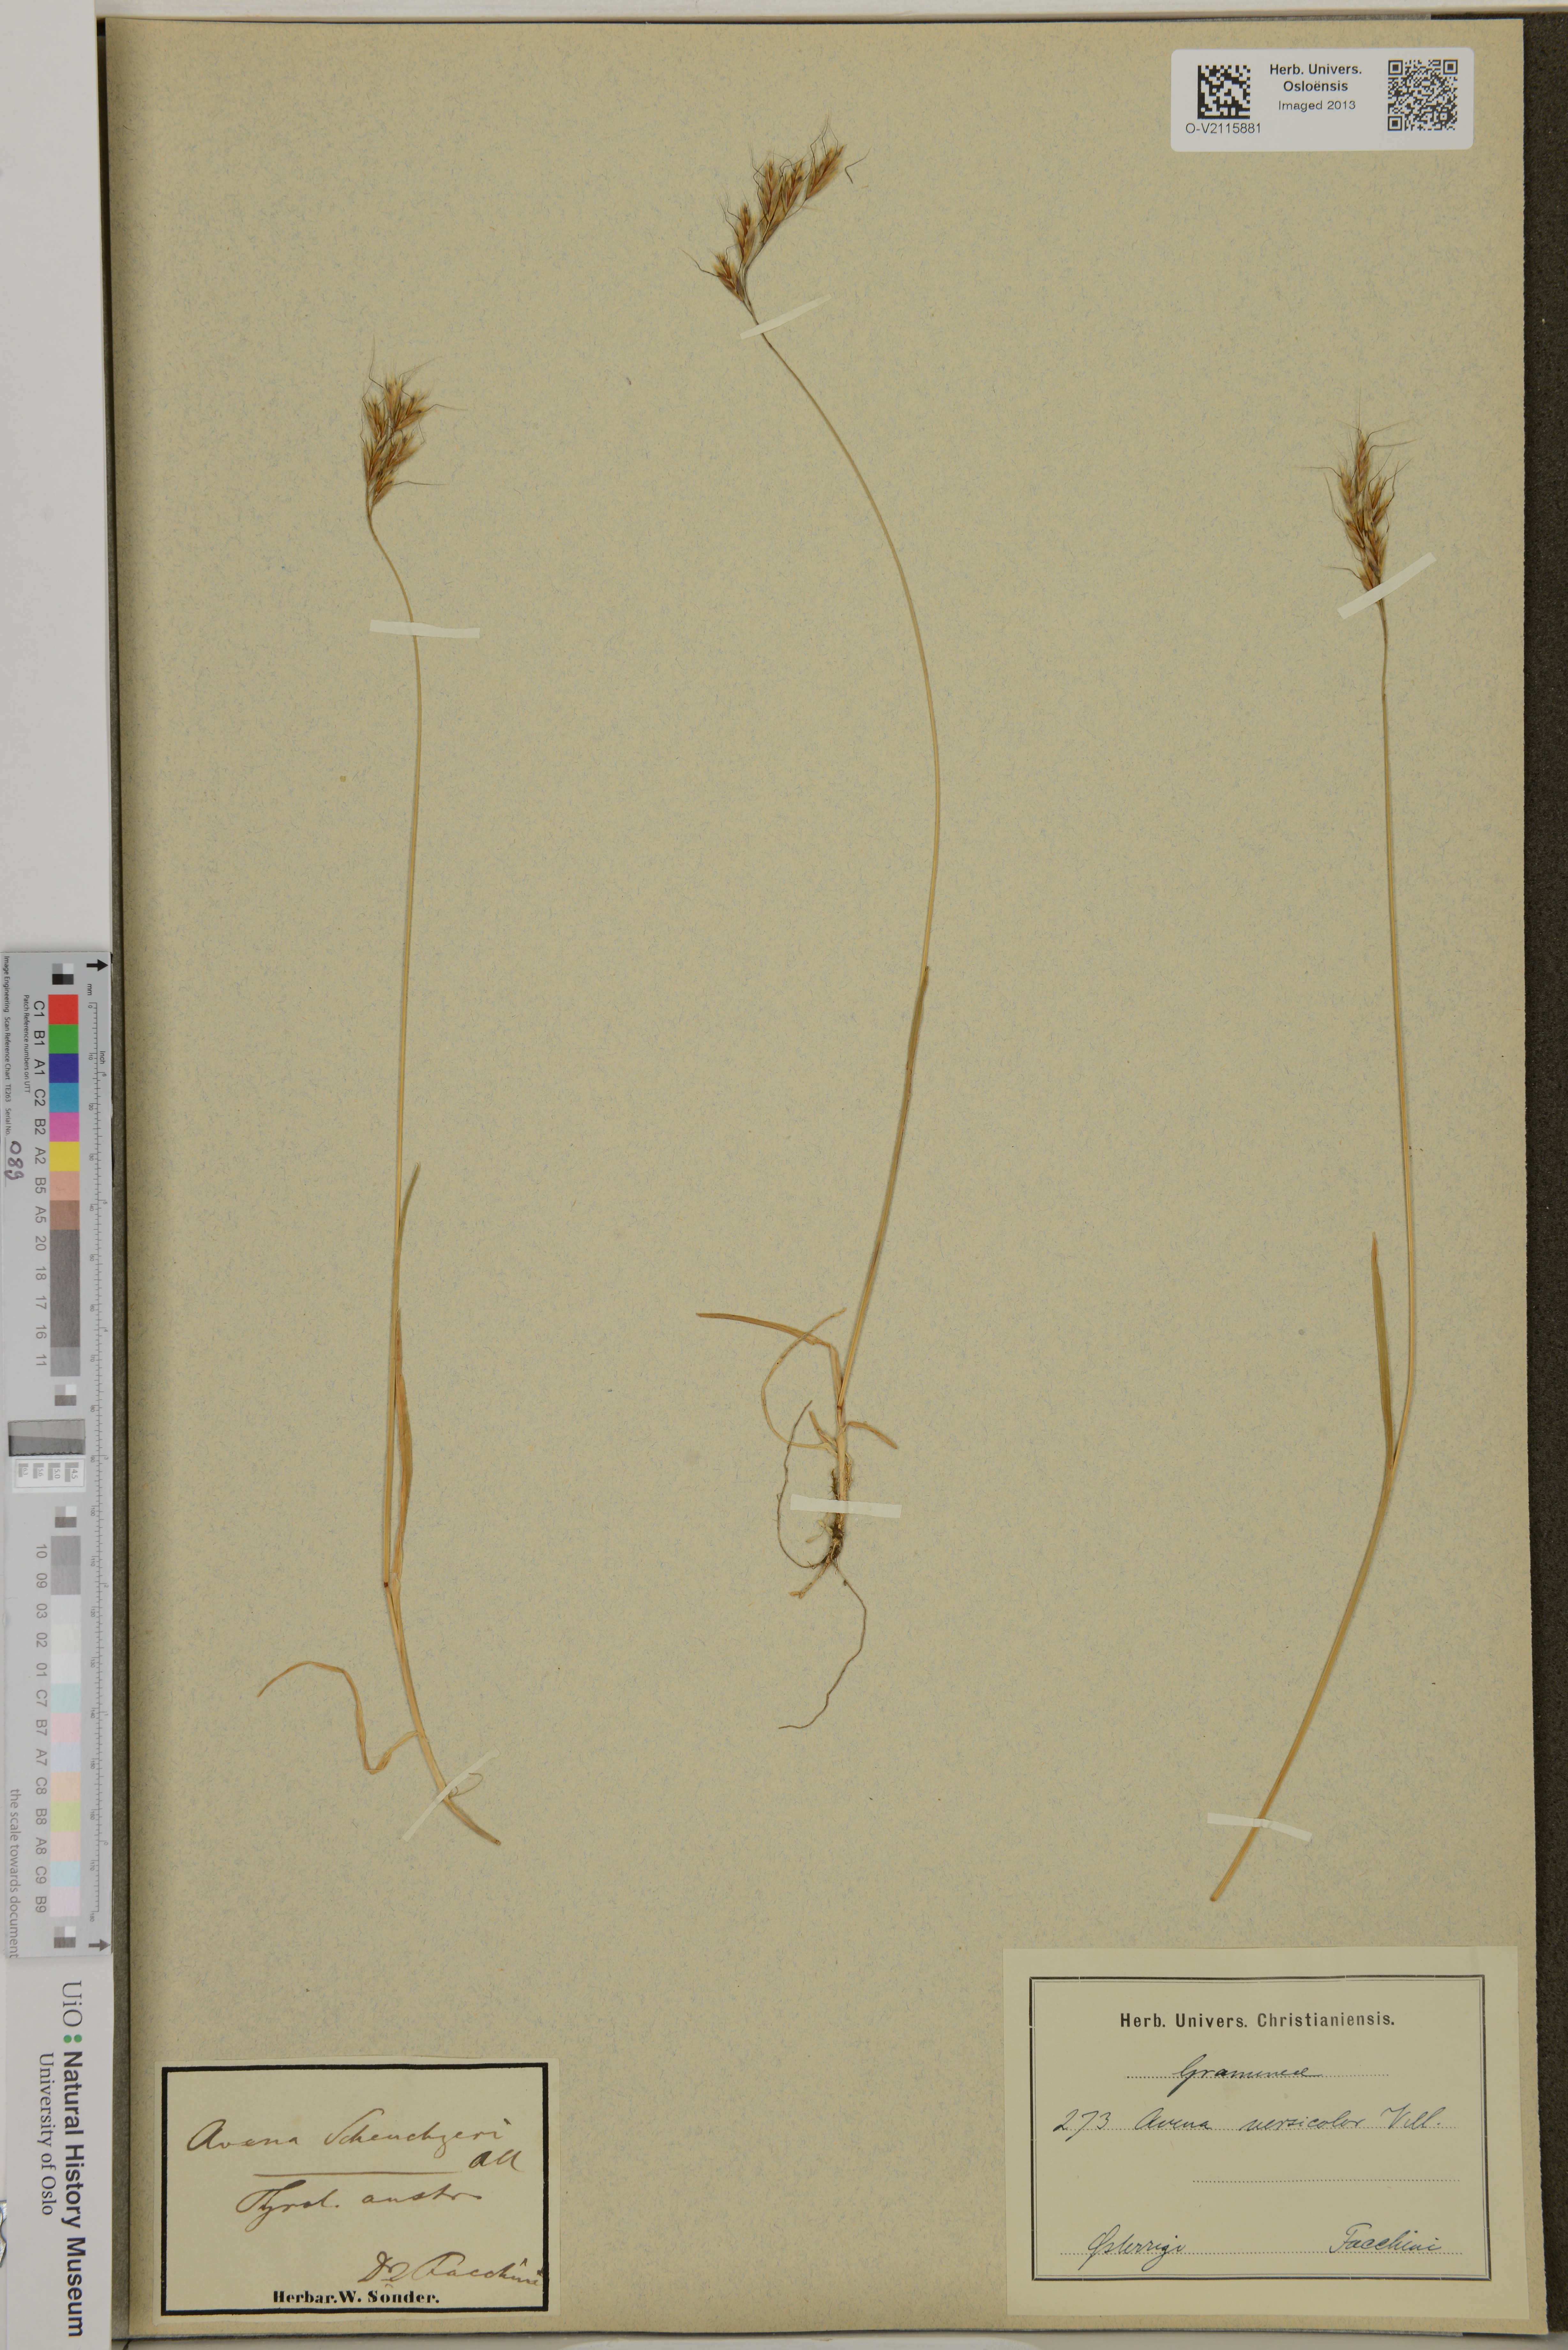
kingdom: Plantae
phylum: Tracheophyta
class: Liliopsida
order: Poales
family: Poaceae
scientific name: Poaceae
